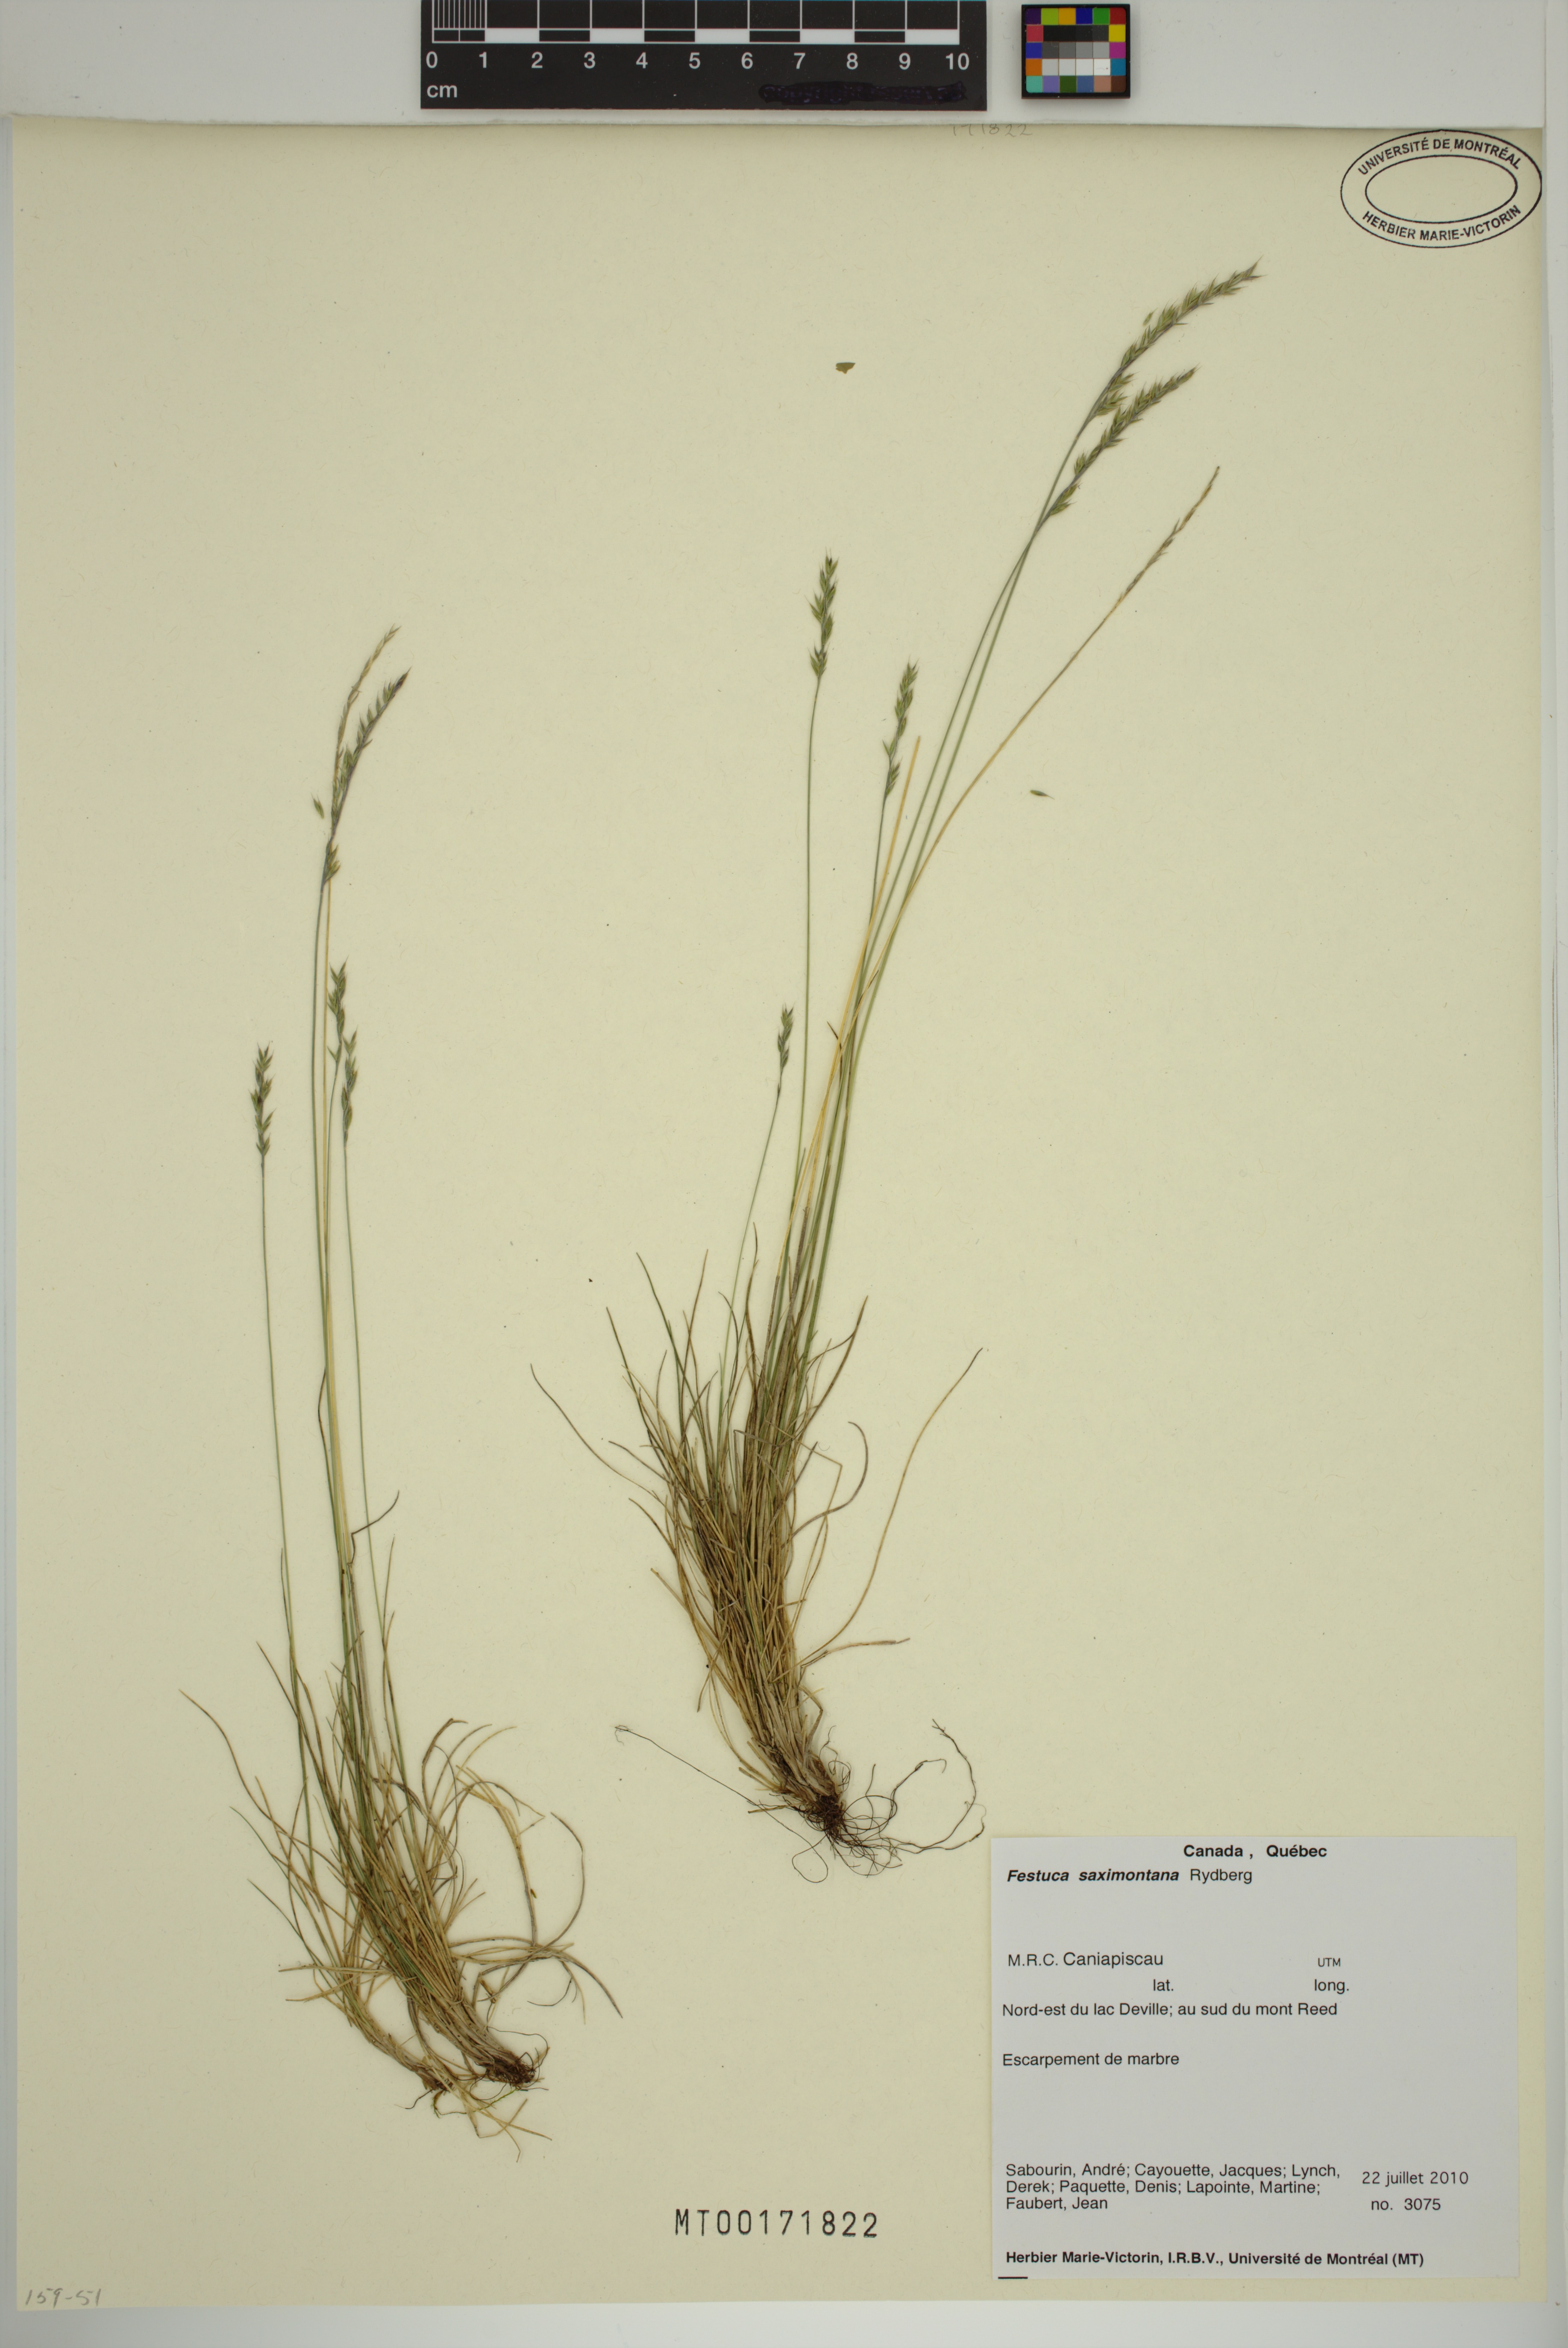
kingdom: Plantae
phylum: Tracheophyta
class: Liliopsida
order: Poales
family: Poaceae
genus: Festuca
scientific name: Festuca saximontana
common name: Mountain fescue
